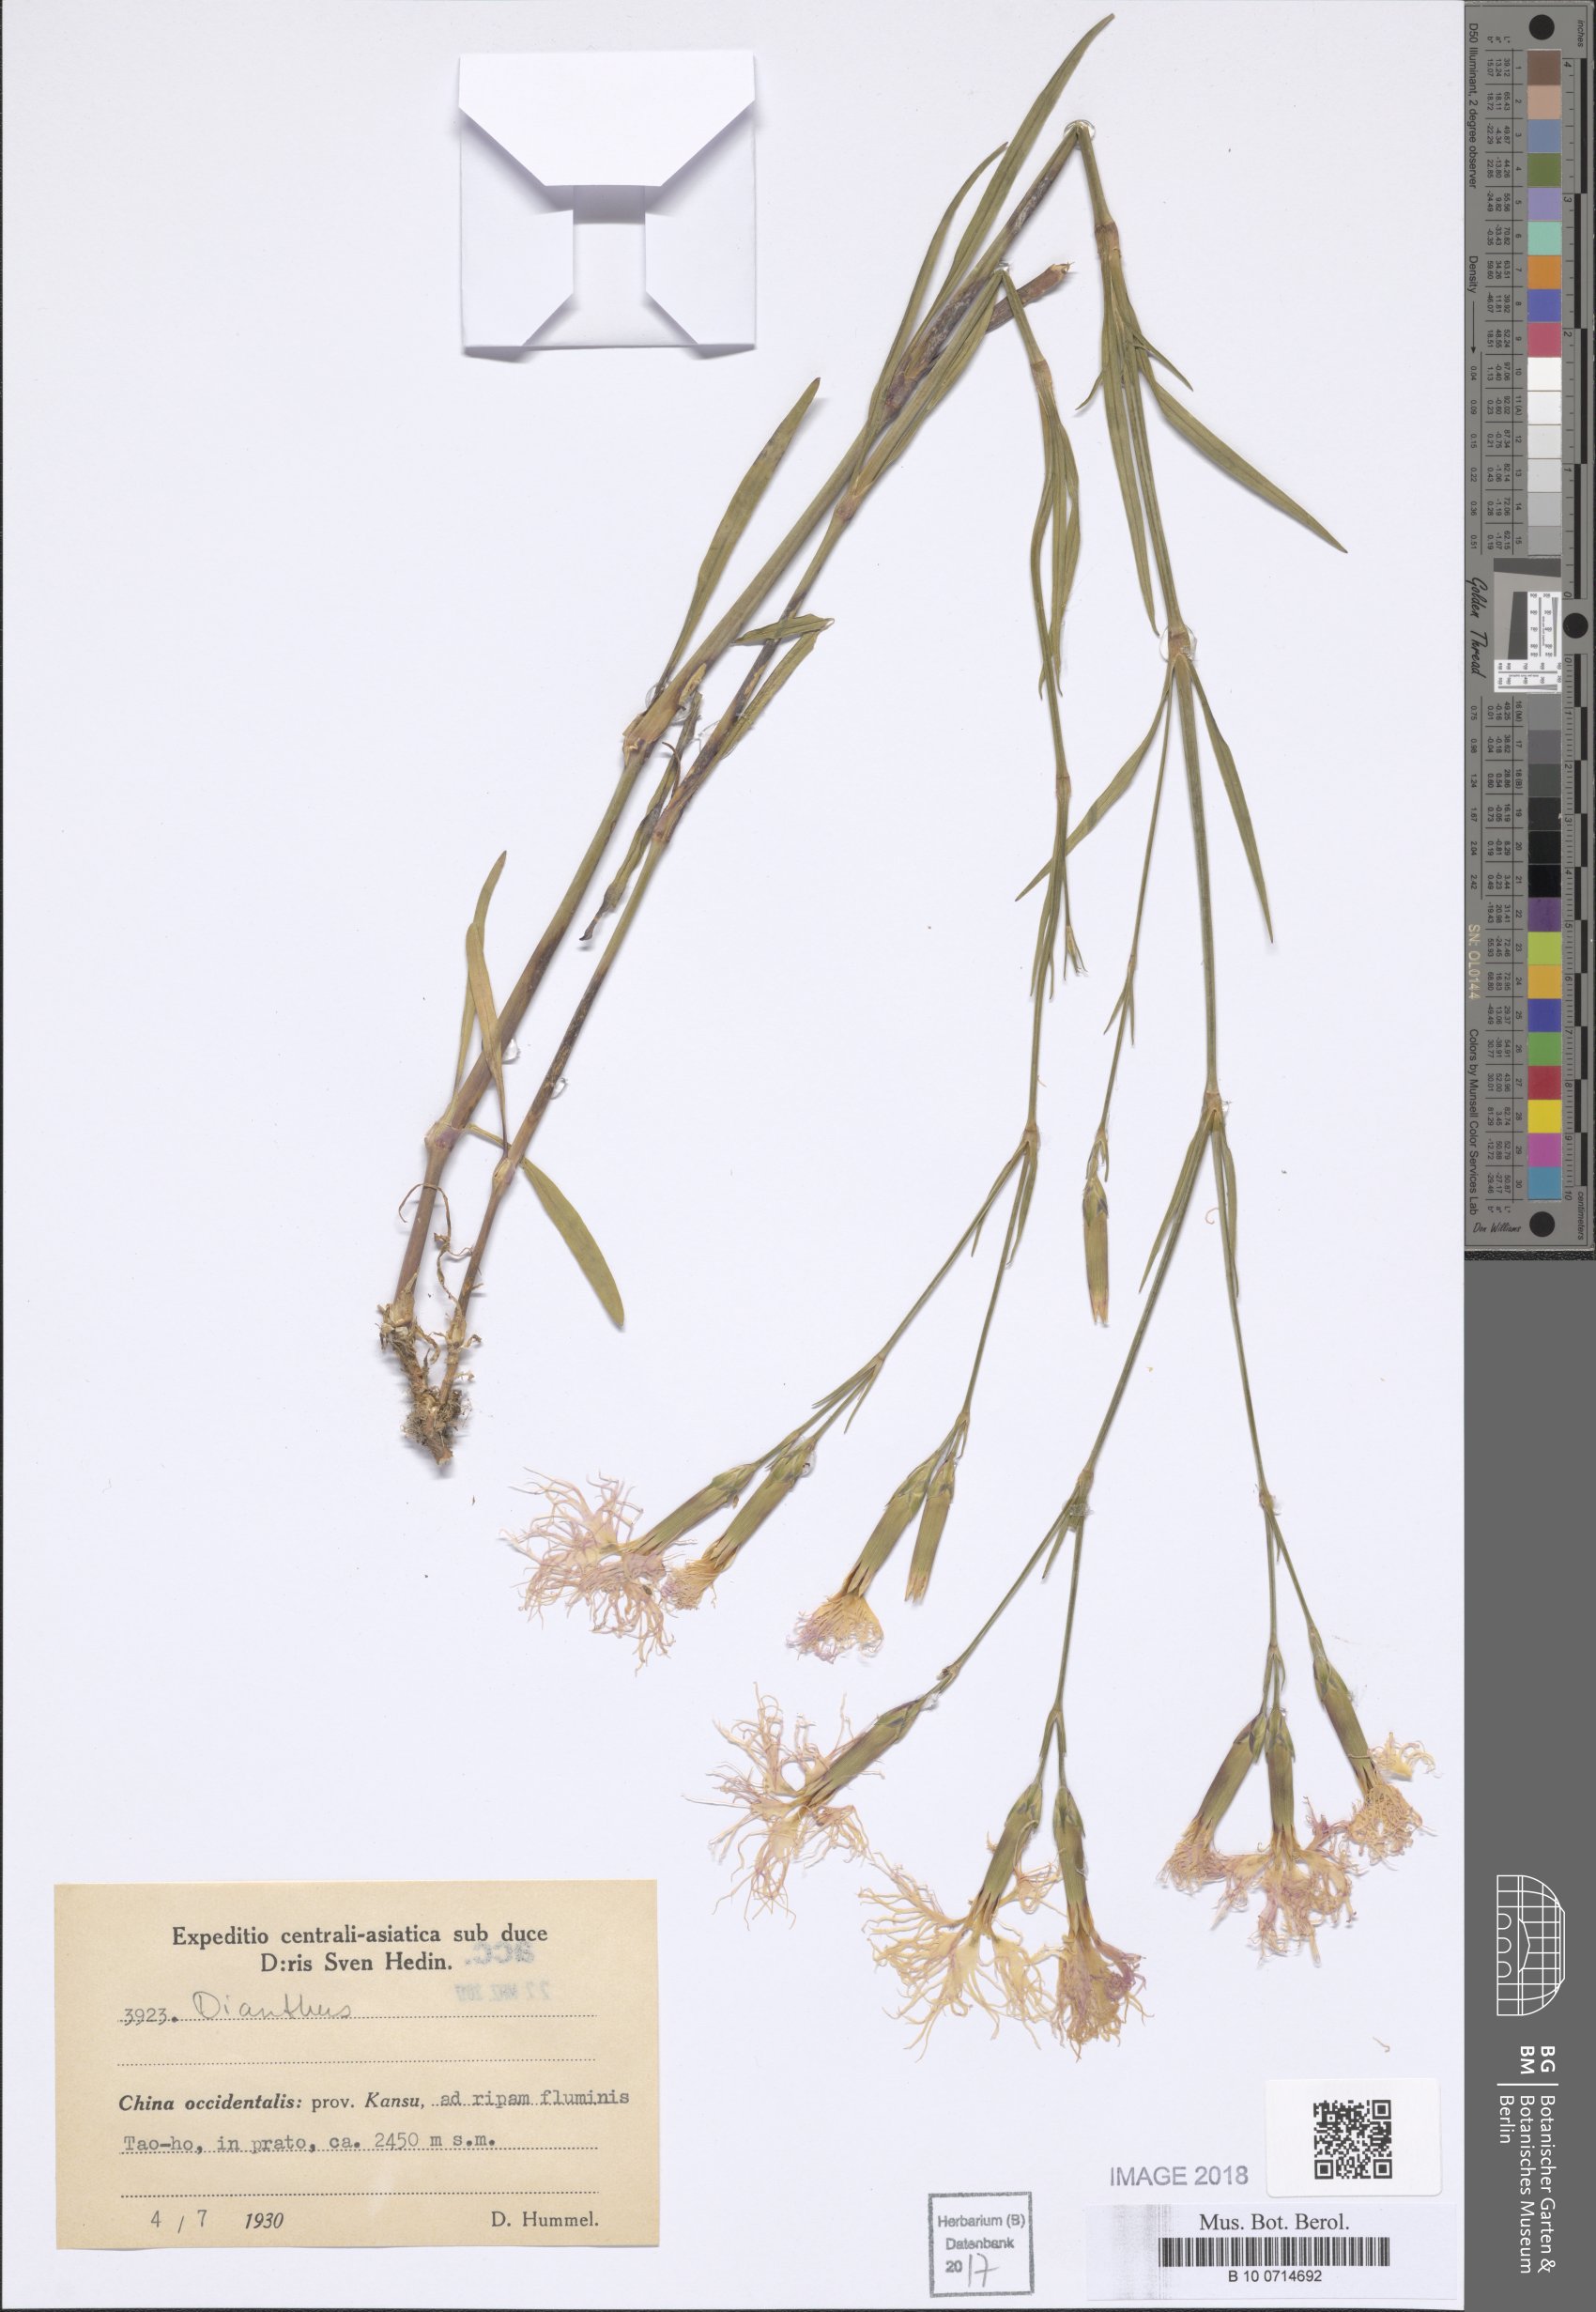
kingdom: Plantae
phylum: Tracheophyta
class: Magnoliopsida
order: Caryophyllales
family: Caryophyllaceae
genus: Dianthus
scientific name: Dianthus
